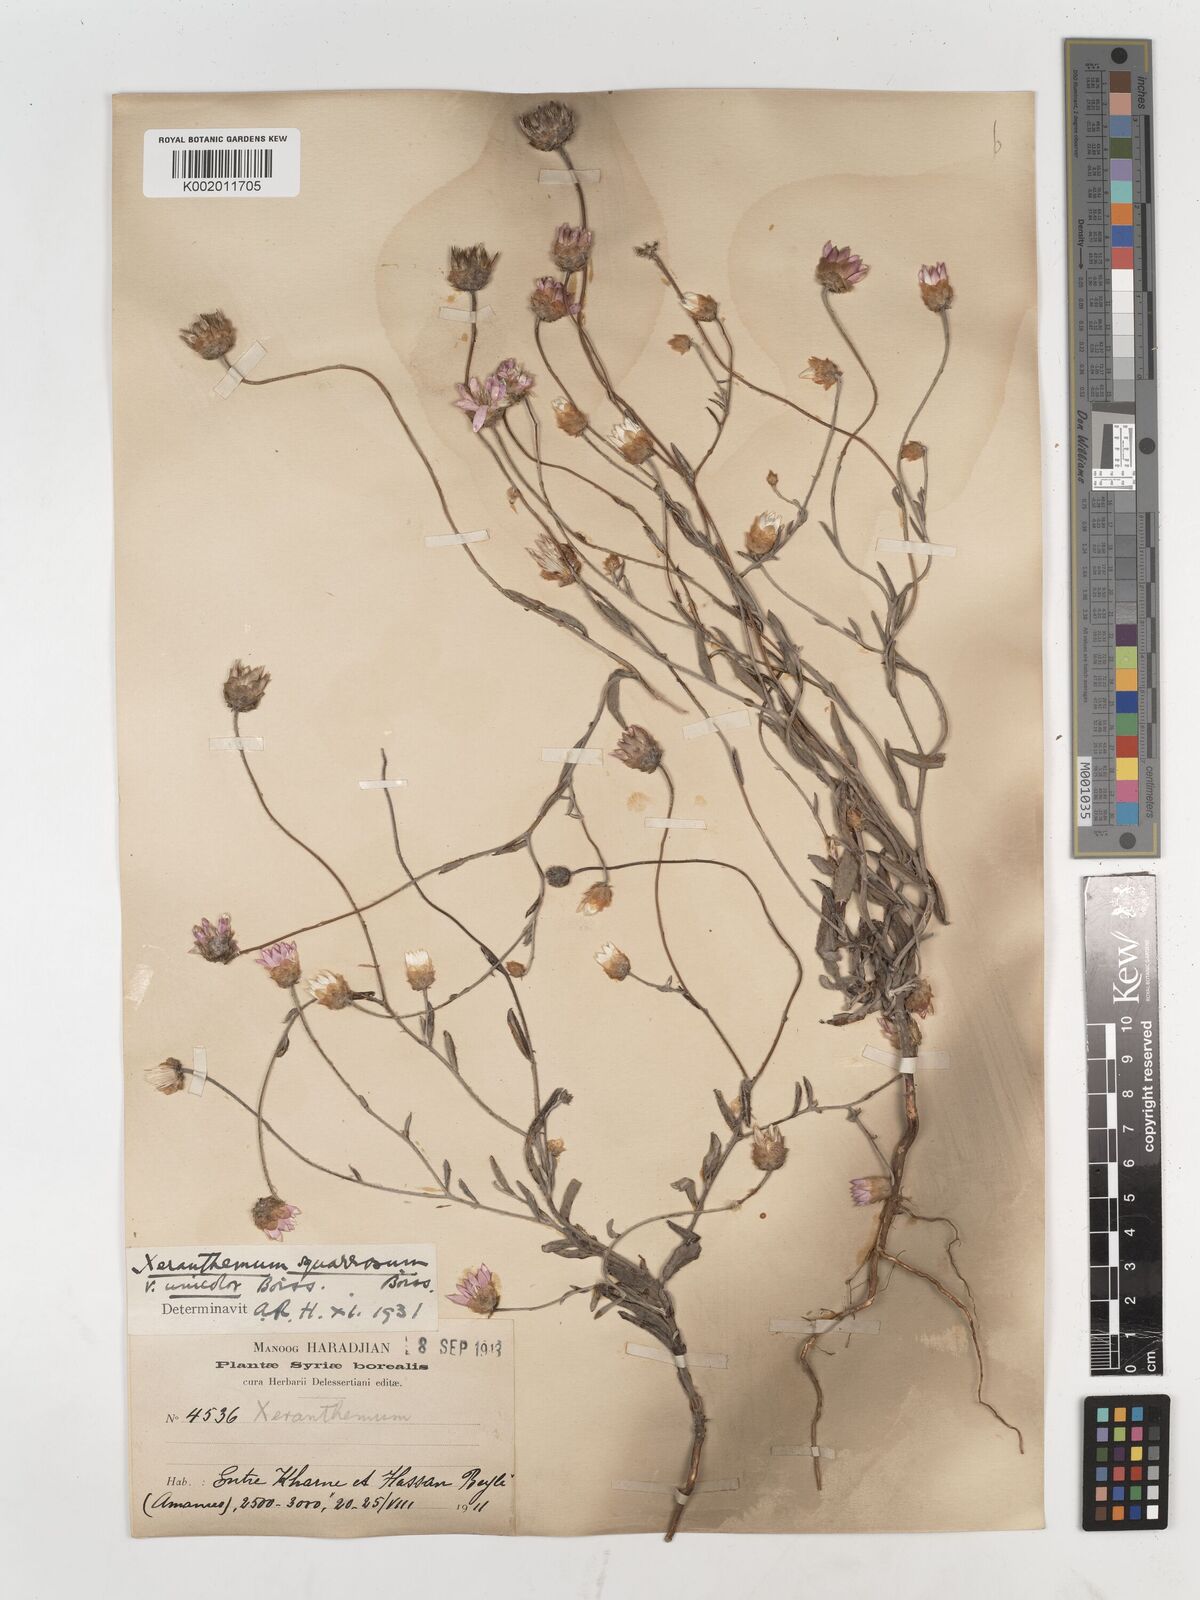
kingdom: Plantae
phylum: Tracheophyta
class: Magnoliopsida
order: Asterales
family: Asteraceae
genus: Xeranthemum
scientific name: Xeranthemum squarrosum
